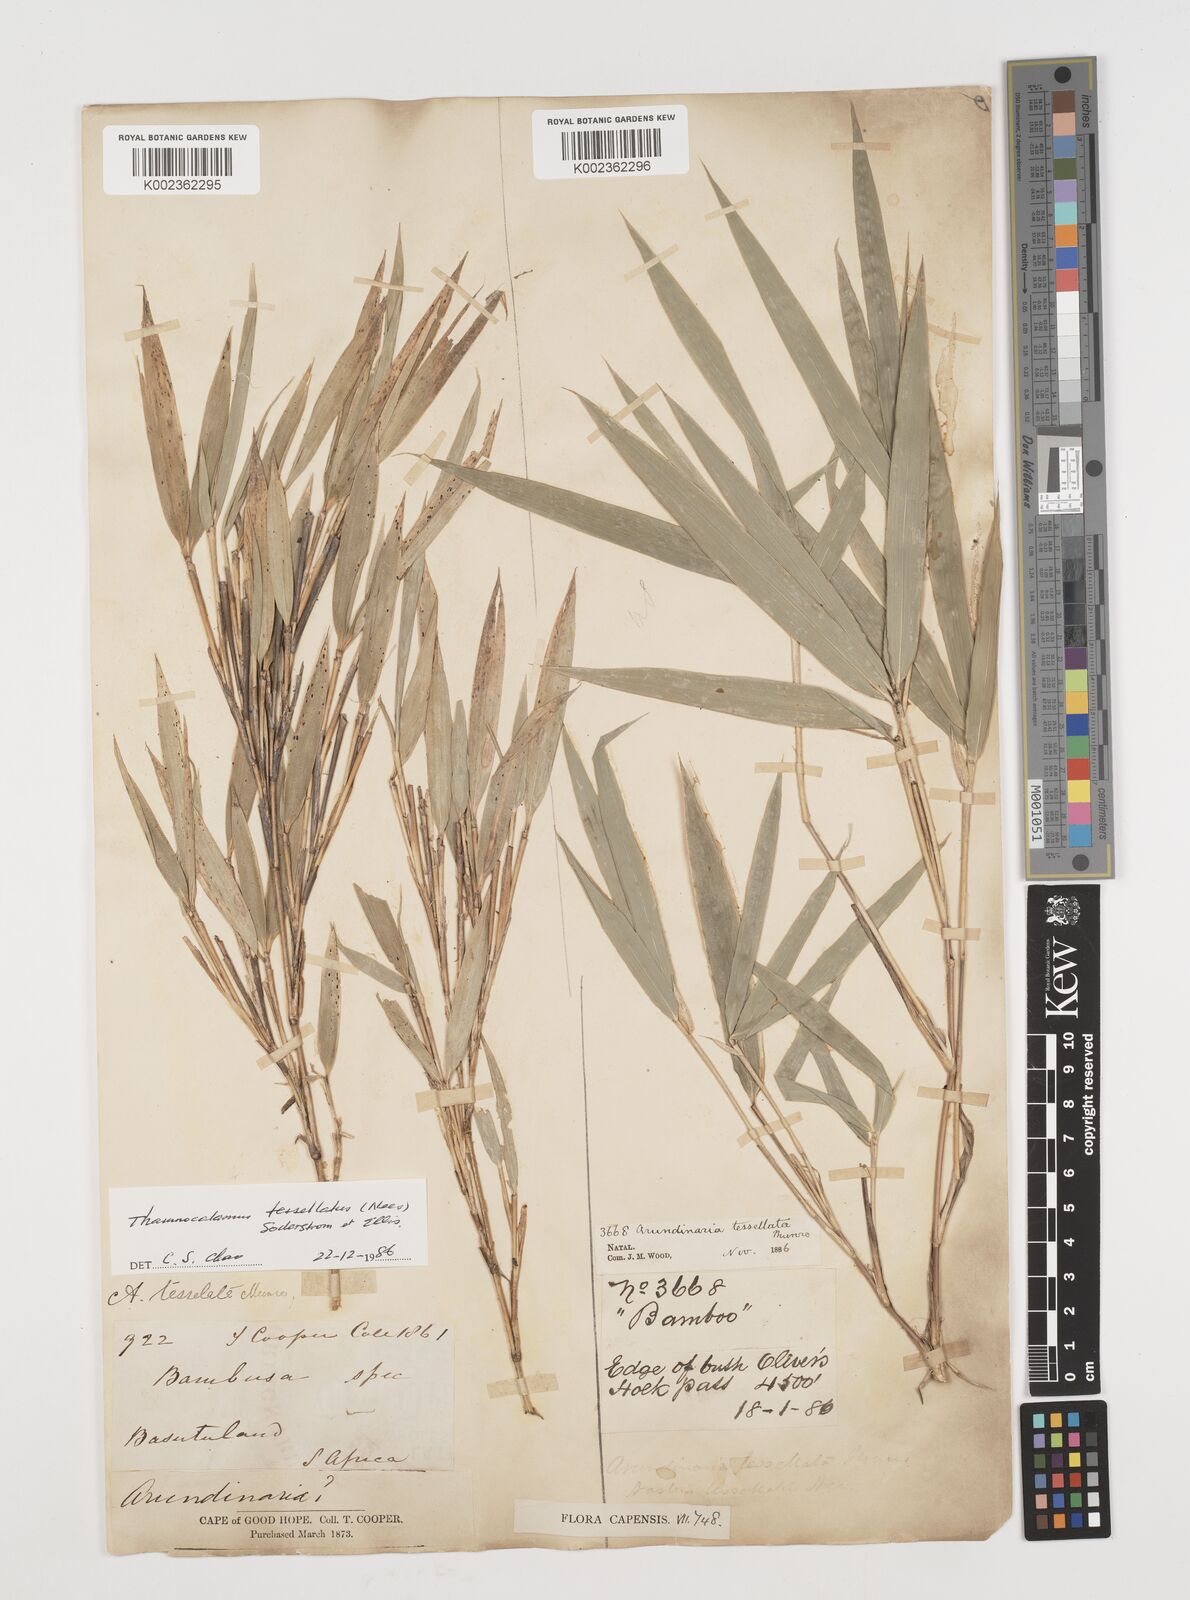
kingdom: Plantae
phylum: Tracheophyta
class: Liliopsida
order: Poales
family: Poaceae
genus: Bergbambos
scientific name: Bergbambos tessellata
